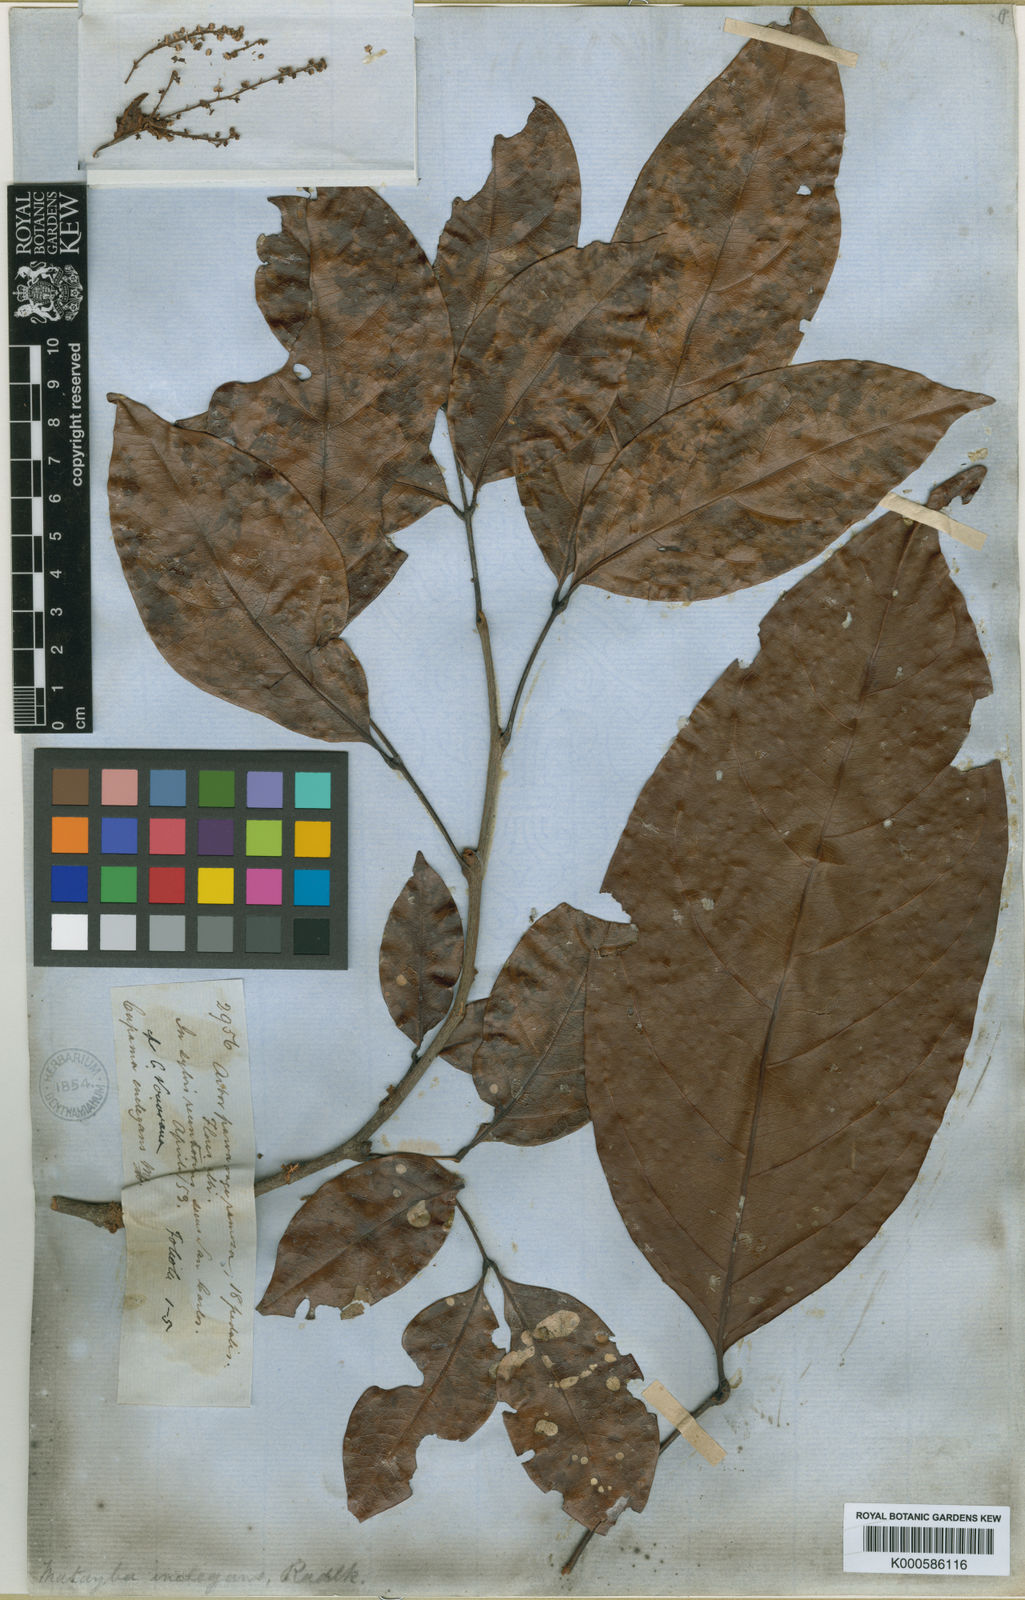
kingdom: Plantae
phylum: Tracheophyta
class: Magnoliopsida
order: Sapindales
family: Sapindaceae
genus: Matayba
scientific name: Matayba inelegans
